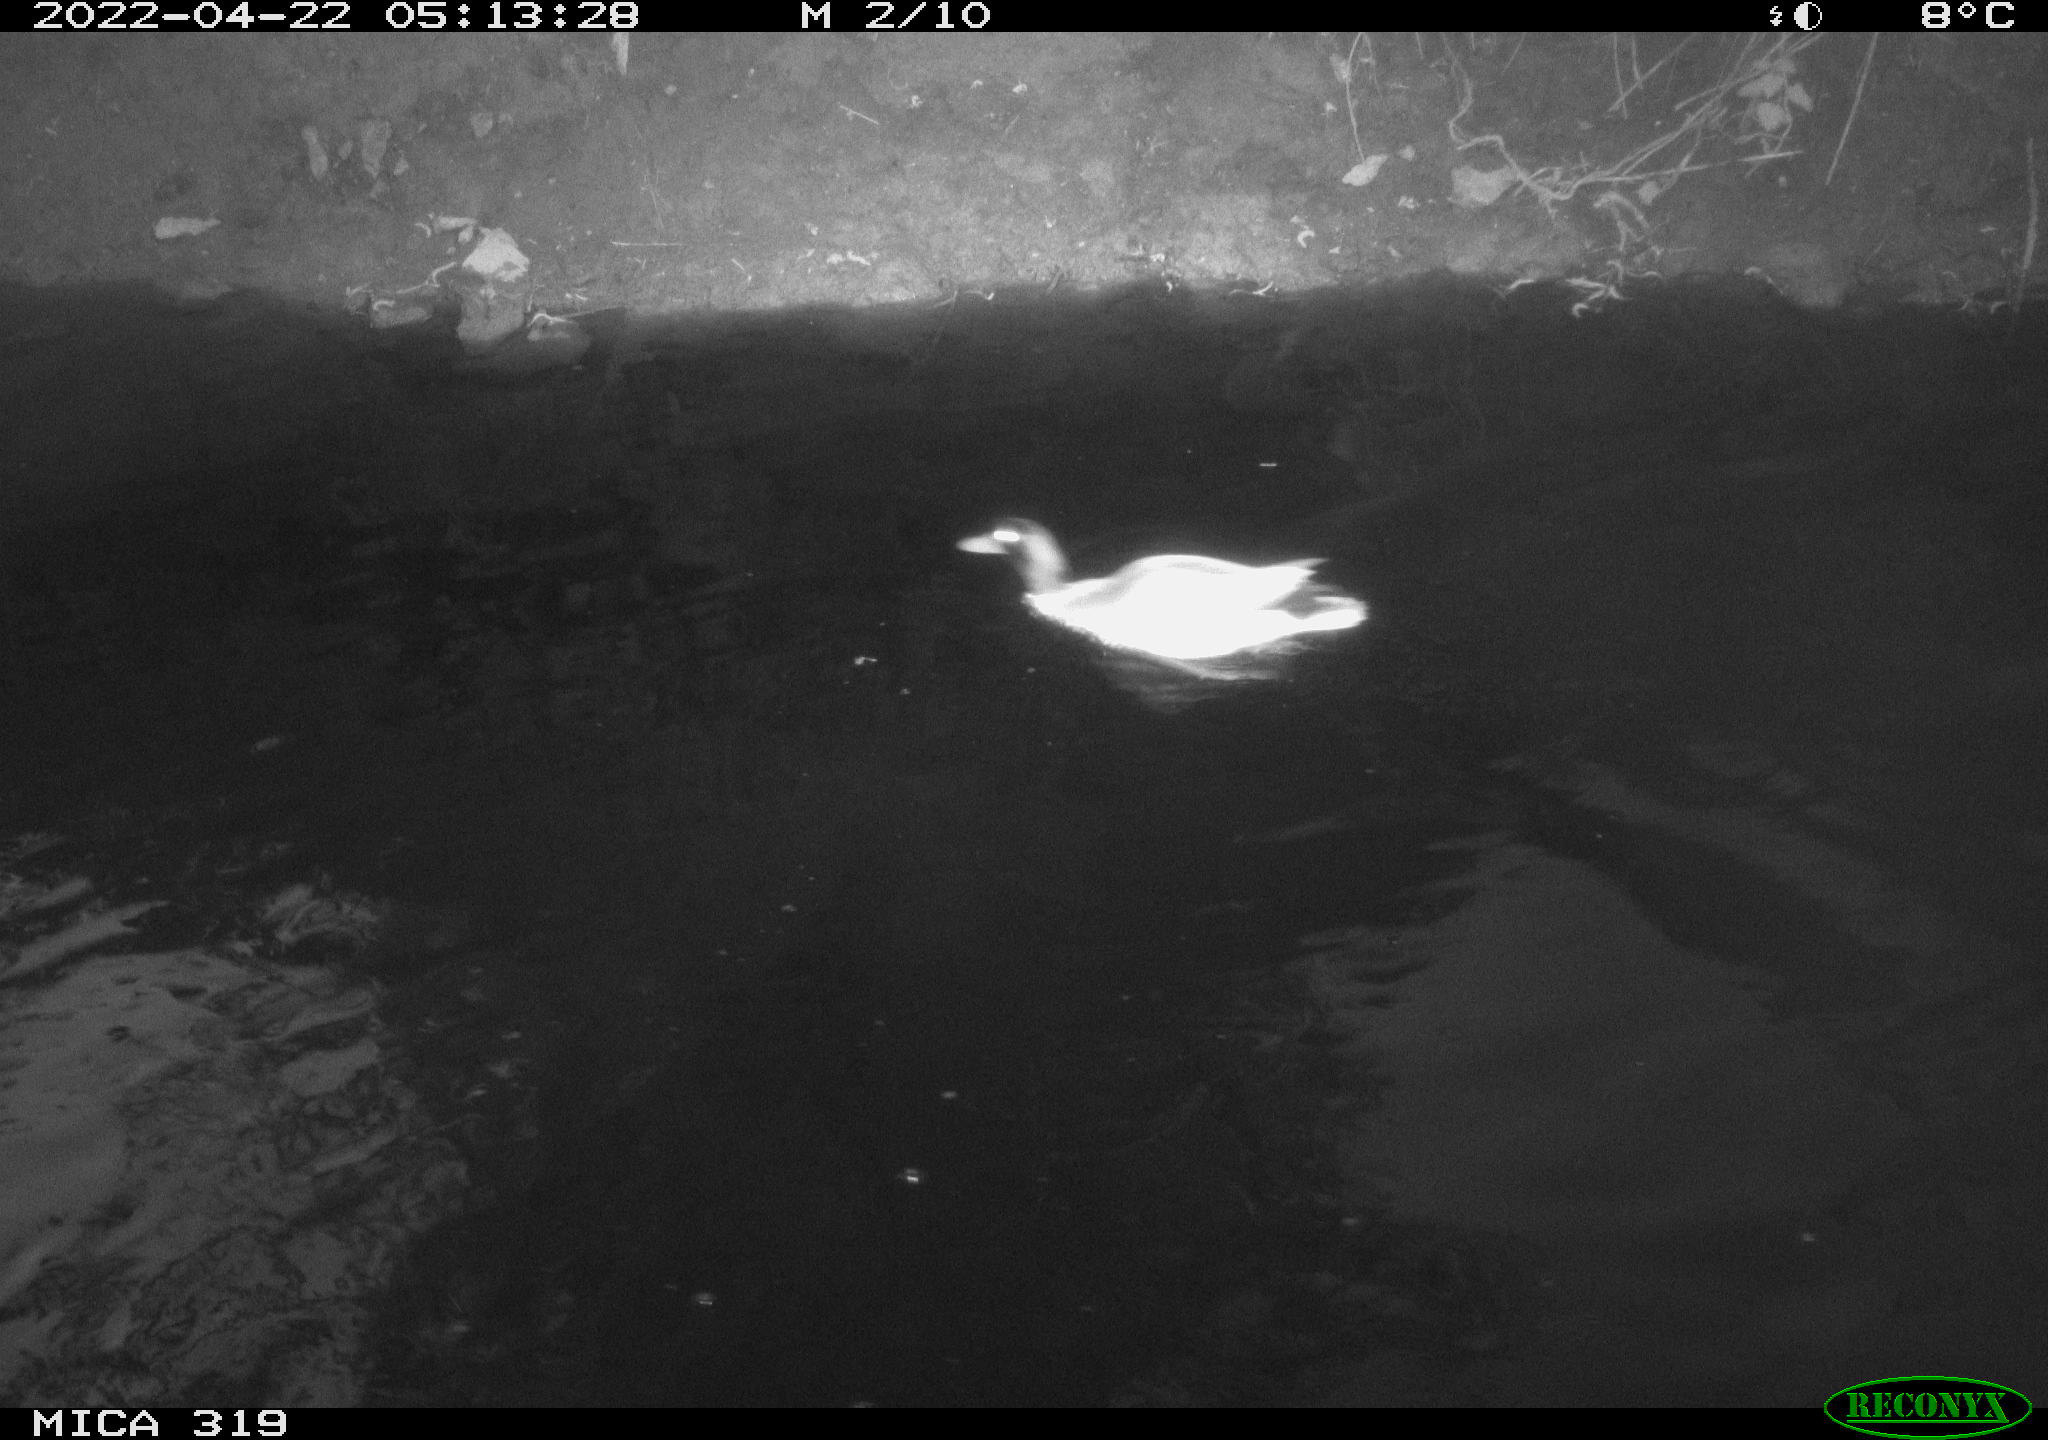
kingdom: Animalia
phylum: Chordata
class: Aves
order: Anseriformes
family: Anatidae
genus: Anas
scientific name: Anas platyrhynchos
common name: Mallard
